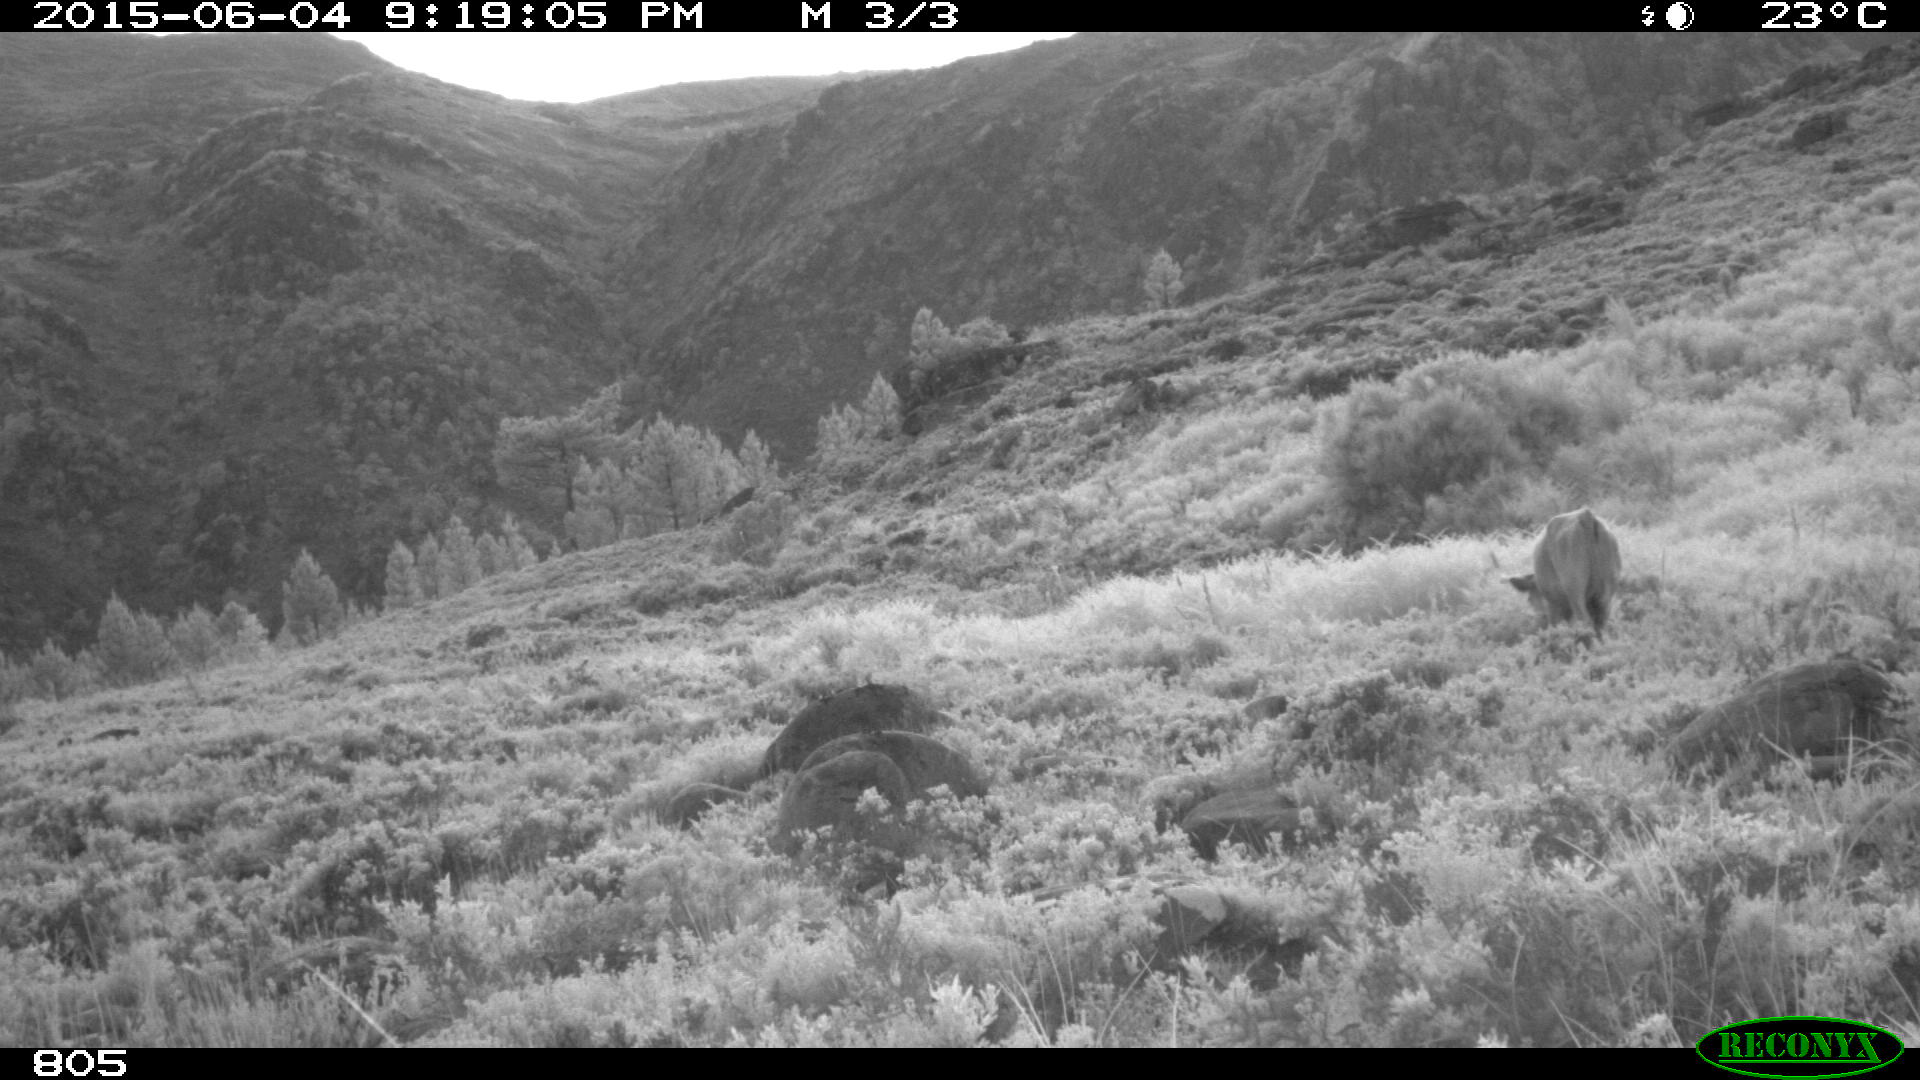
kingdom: Animalia
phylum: Chordata
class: Mammalia
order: Artiodactyla
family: Bovidae
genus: Bos
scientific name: Bos taurus
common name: Domesticated cattle
